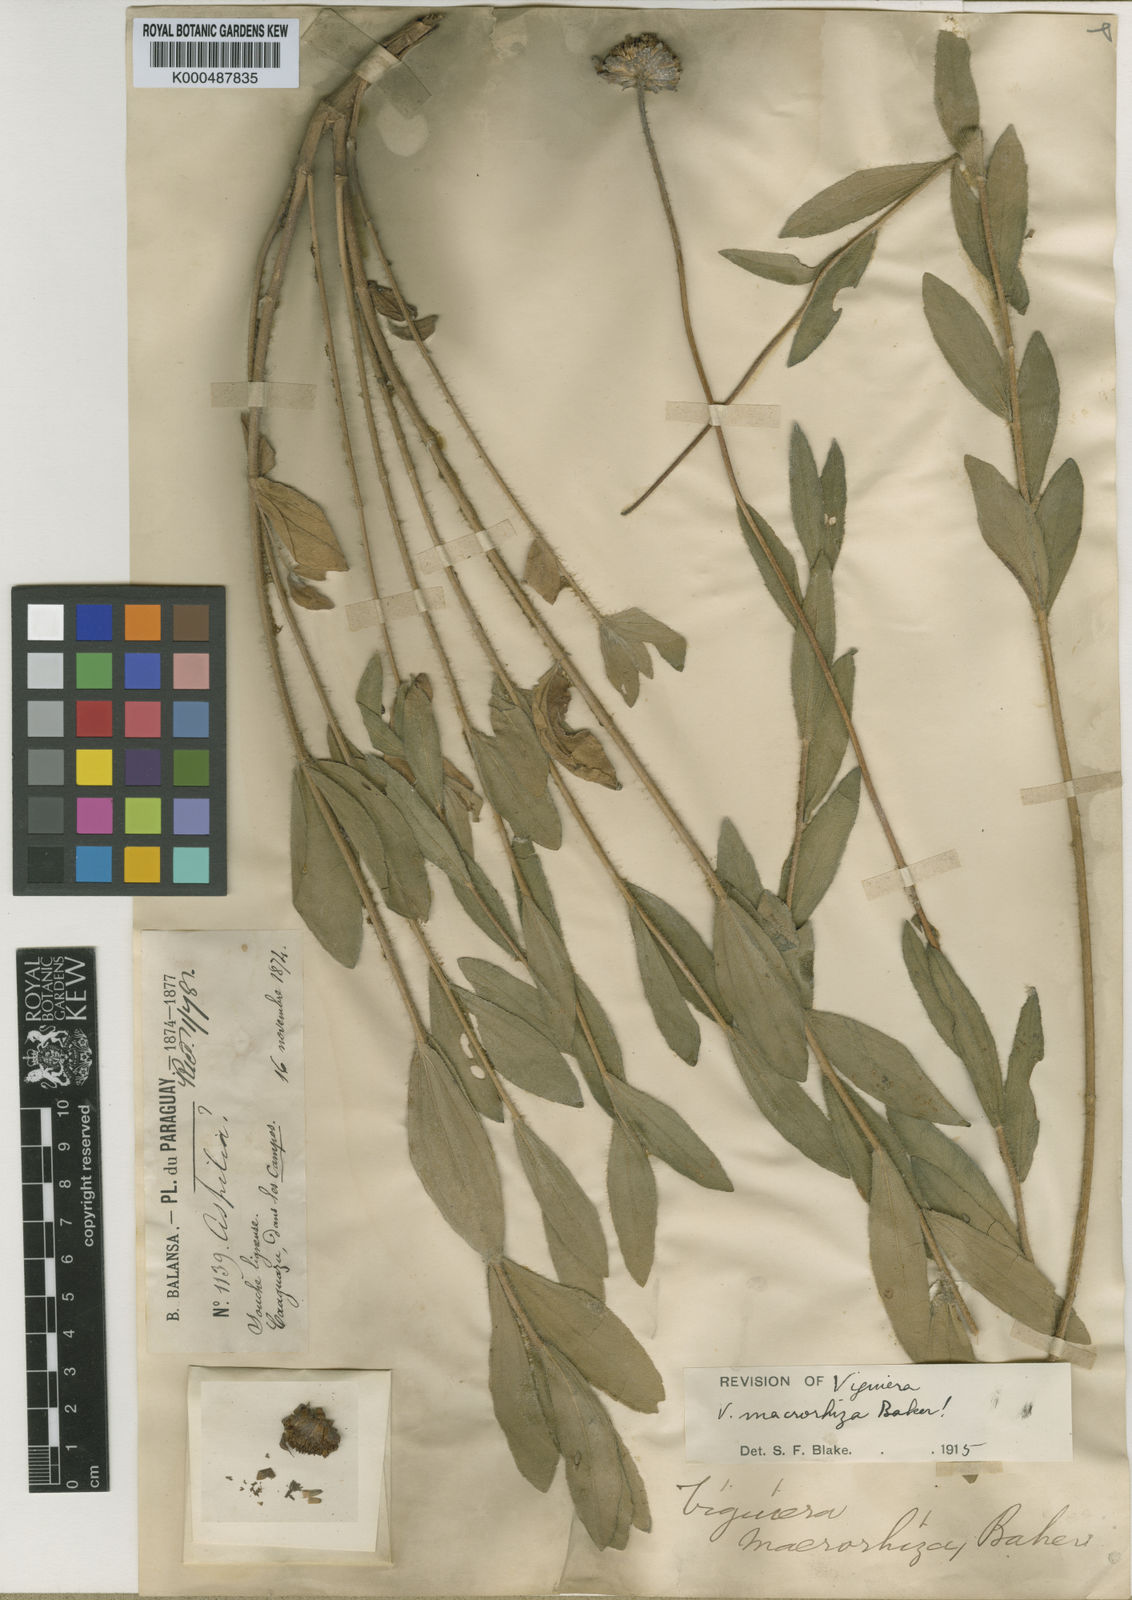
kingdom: Plantae
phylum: Tracheophyta
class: Magnoliopsida
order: Asterales
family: Asteraceae
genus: Aldama
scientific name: Aldama macrorhiza
